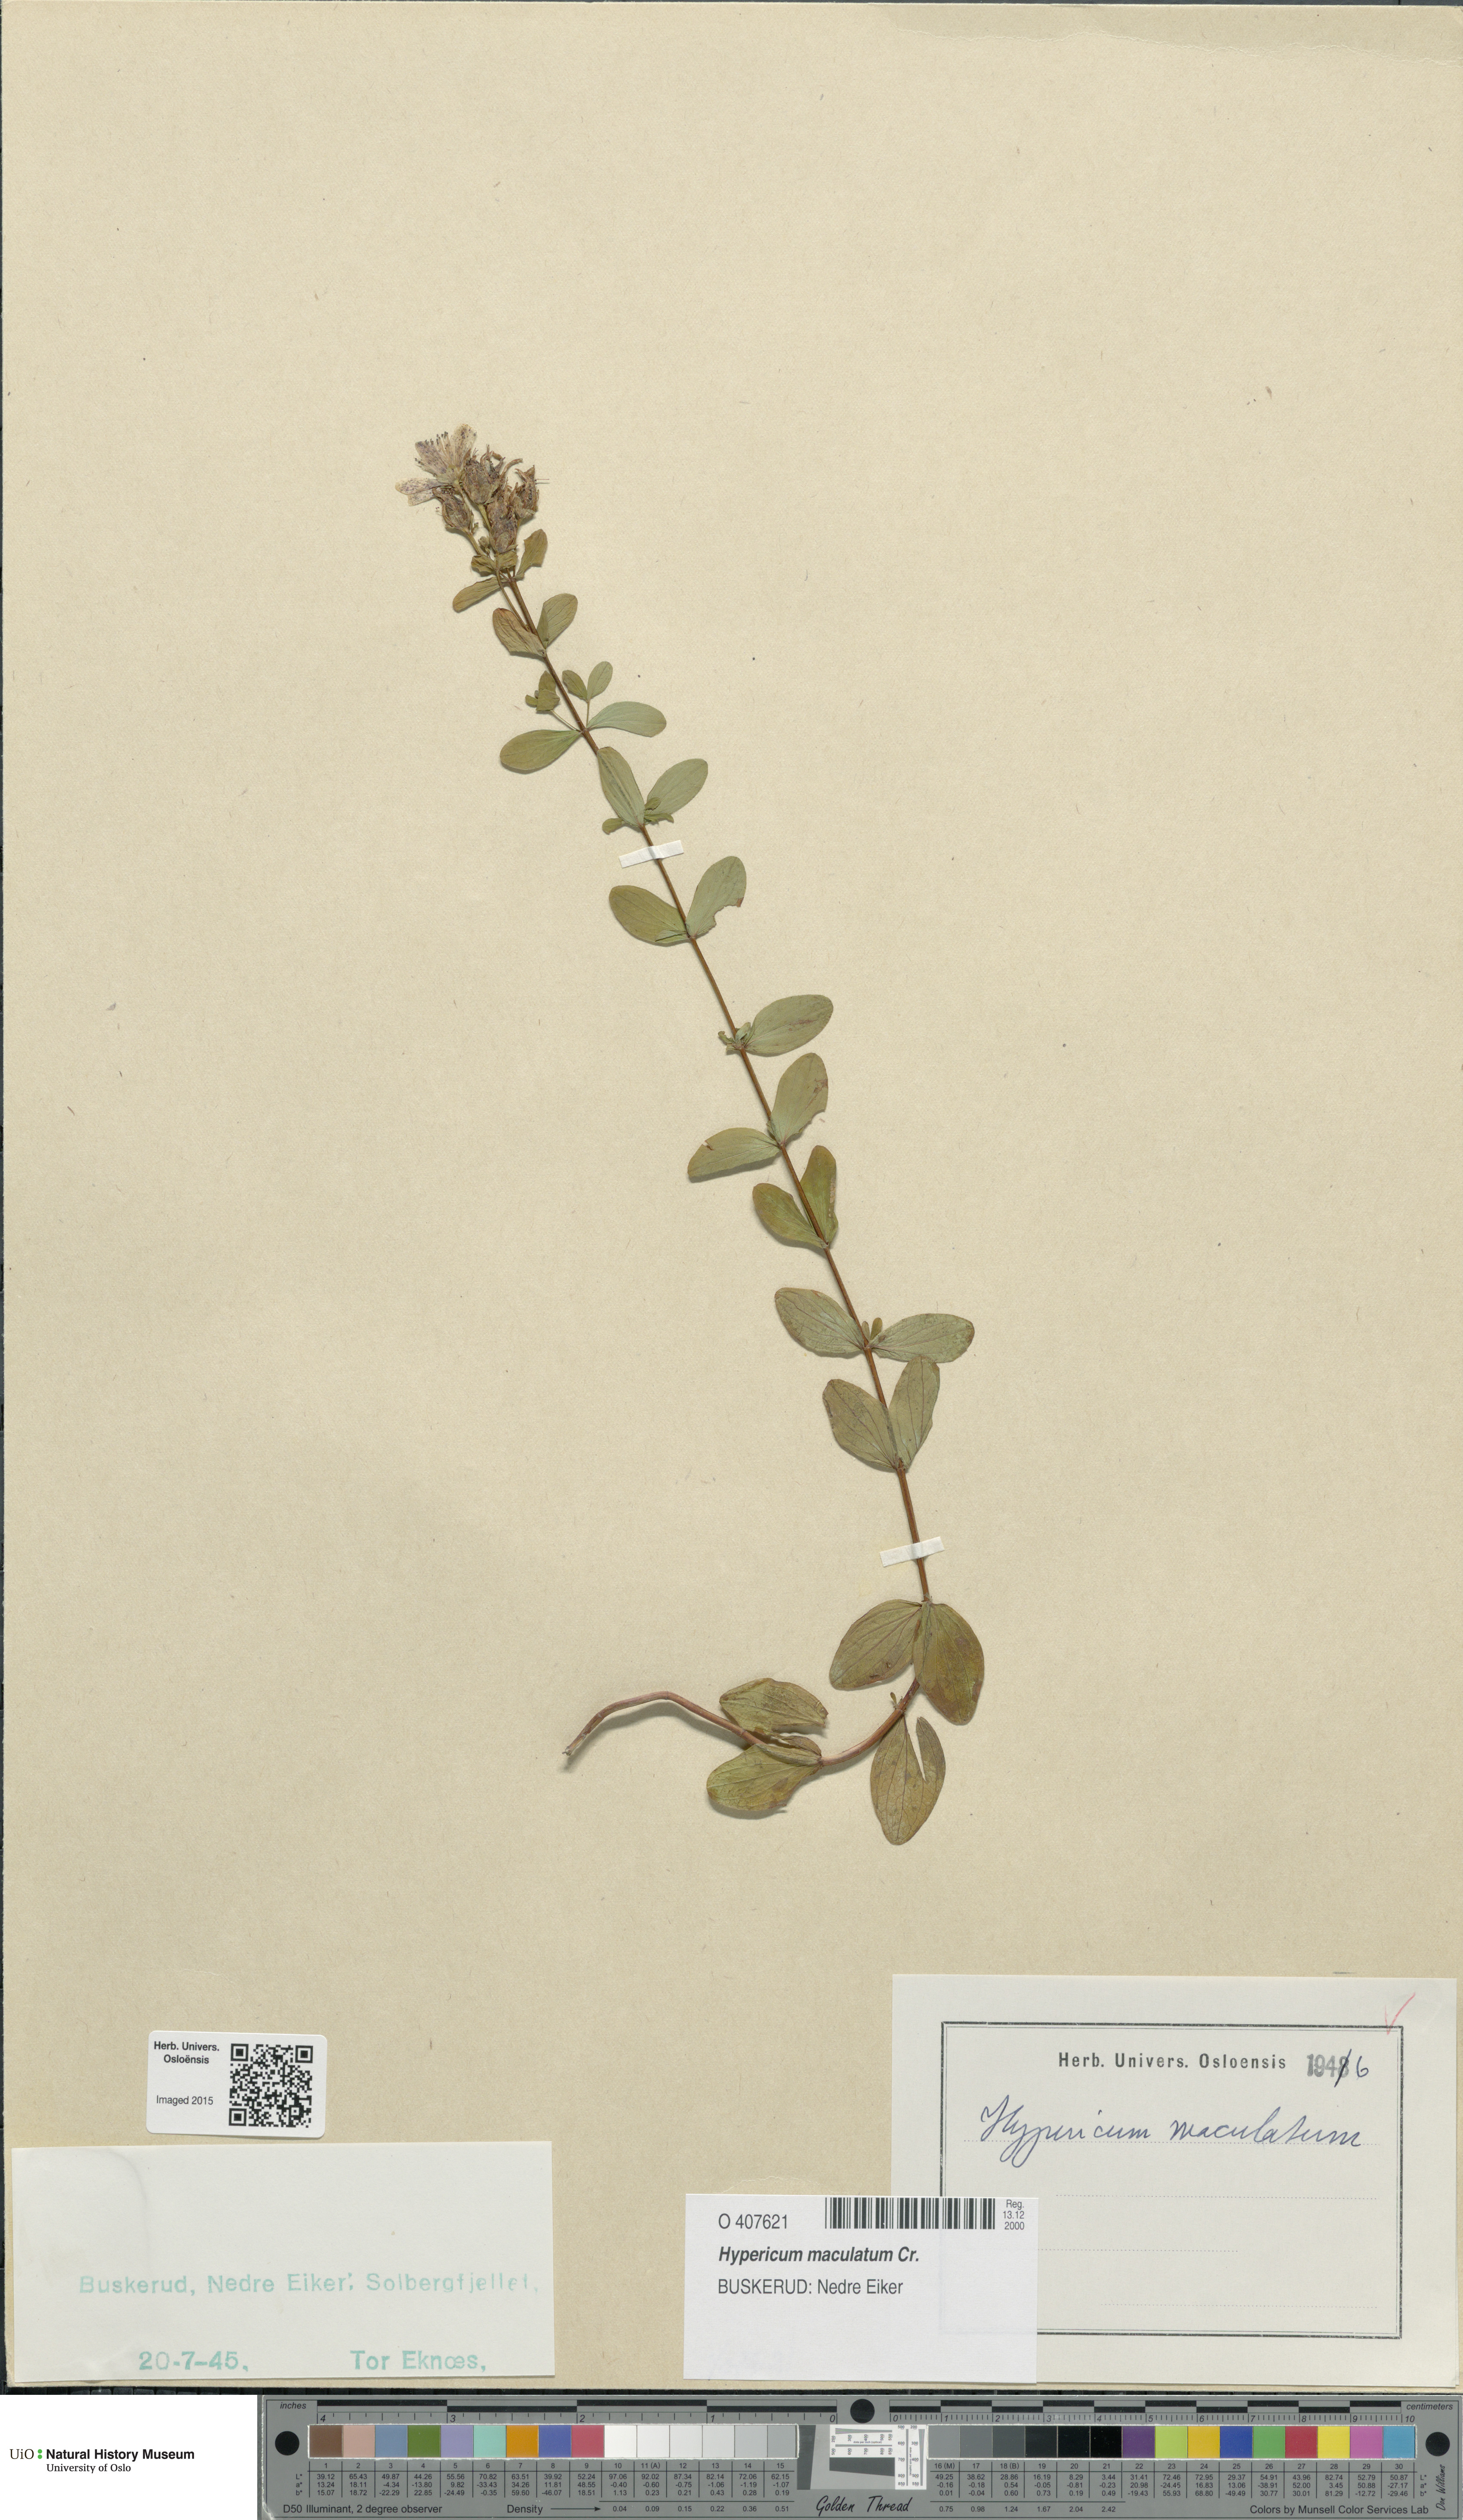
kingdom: Plantae
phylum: Tracheophyta
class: Magnoliopsida
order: Malpighiales
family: Hypericaceae
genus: Hypericum
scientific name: Hypericum maculatum
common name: Imperforate st. john's-wort
